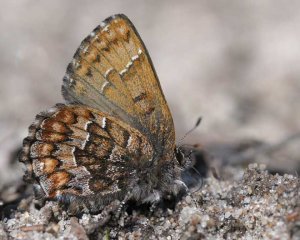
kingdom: Animalia
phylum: Arthropoda
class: Insecta
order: Lepidoptera
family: Lycaenidae
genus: Incisalia
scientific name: Incisalia niphon
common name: Eastern Pine Elfin
